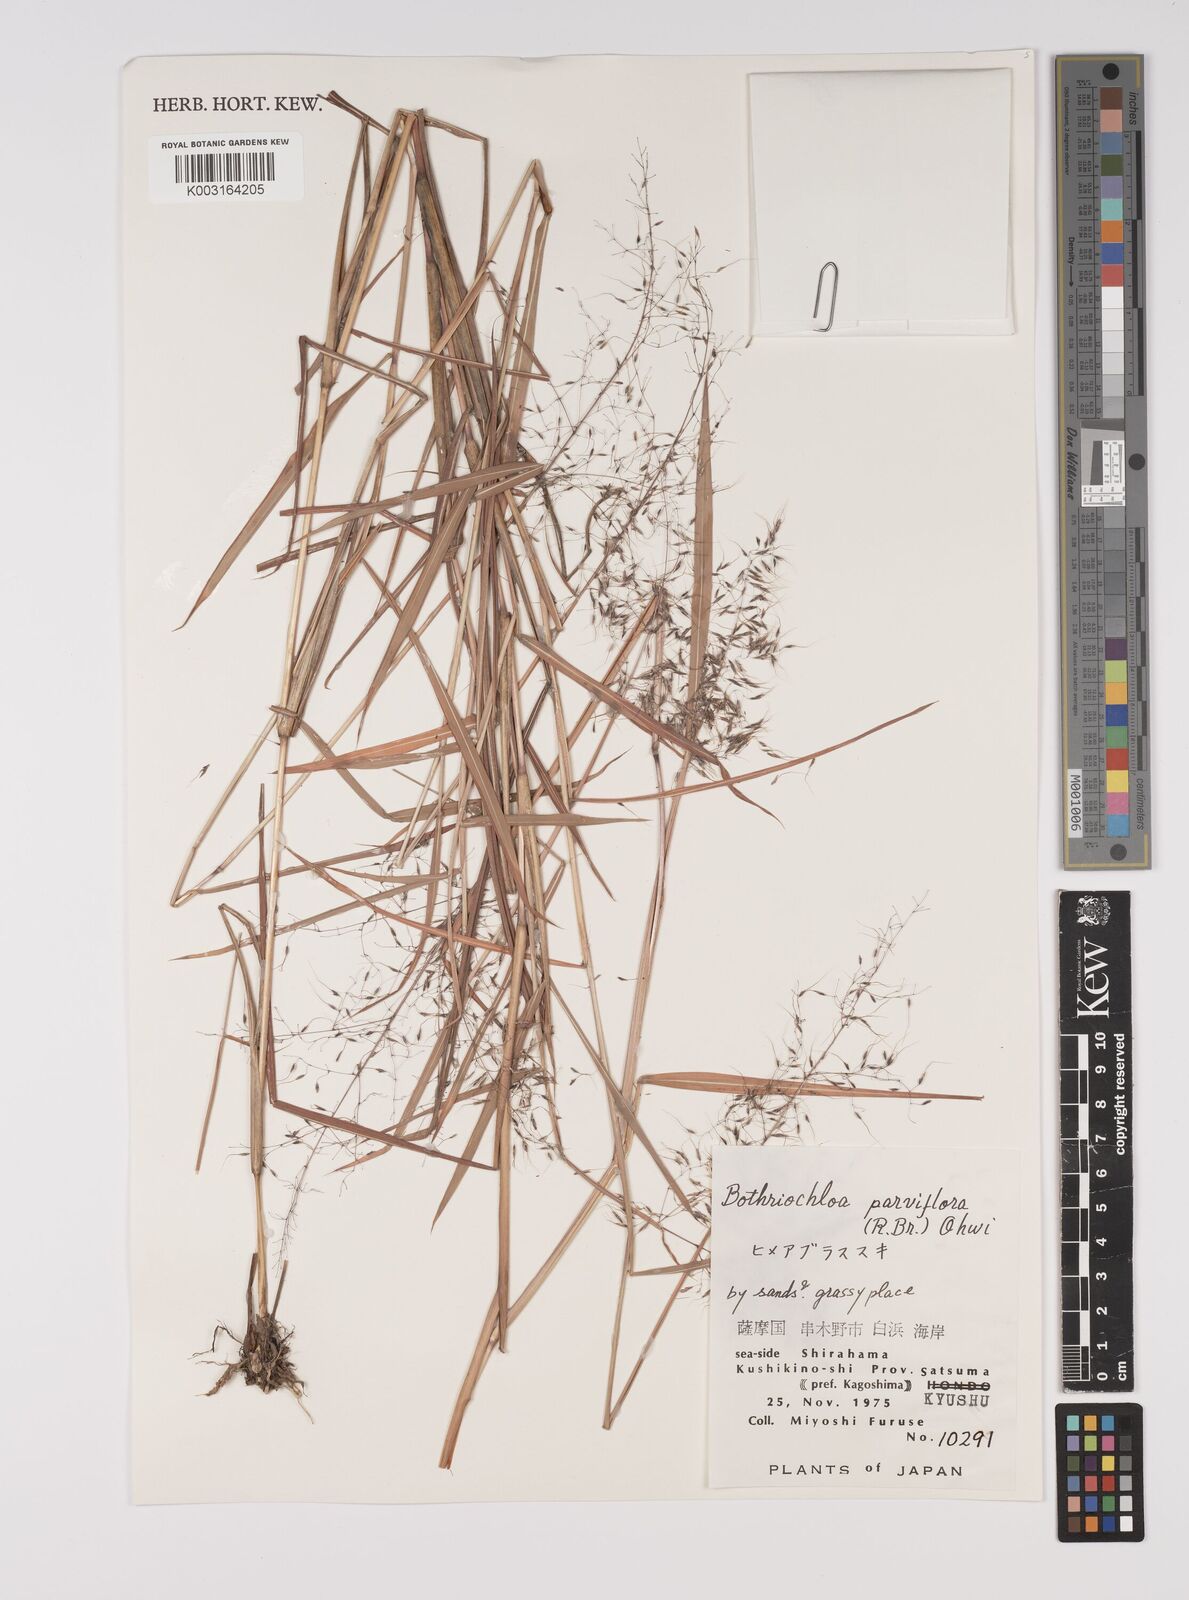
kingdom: Plantae
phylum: Tracheophyta
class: Liliopsida
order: Poales
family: Poaceae
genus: Capillipedium
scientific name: Capillipedium parviflorum
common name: Golden-beard
